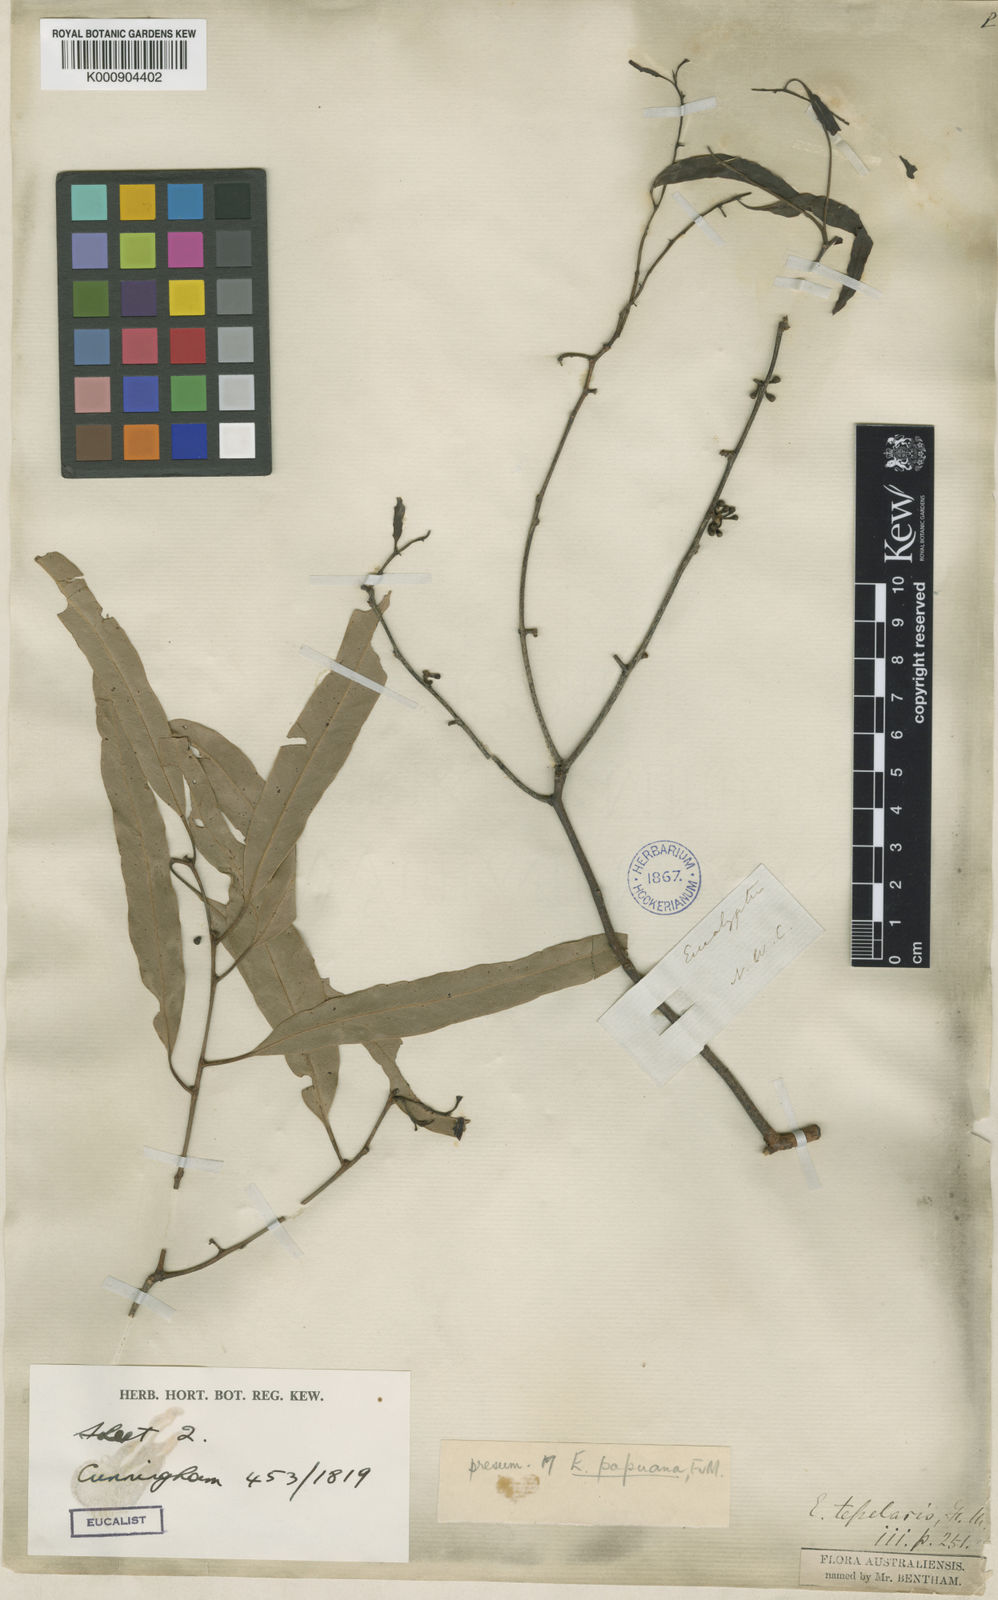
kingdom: Plantae
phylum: Tracheophyta
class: Magnoliopsida
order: Myrtales
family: Myrtaceae
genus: Corymbia
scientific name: Corymbia torta
